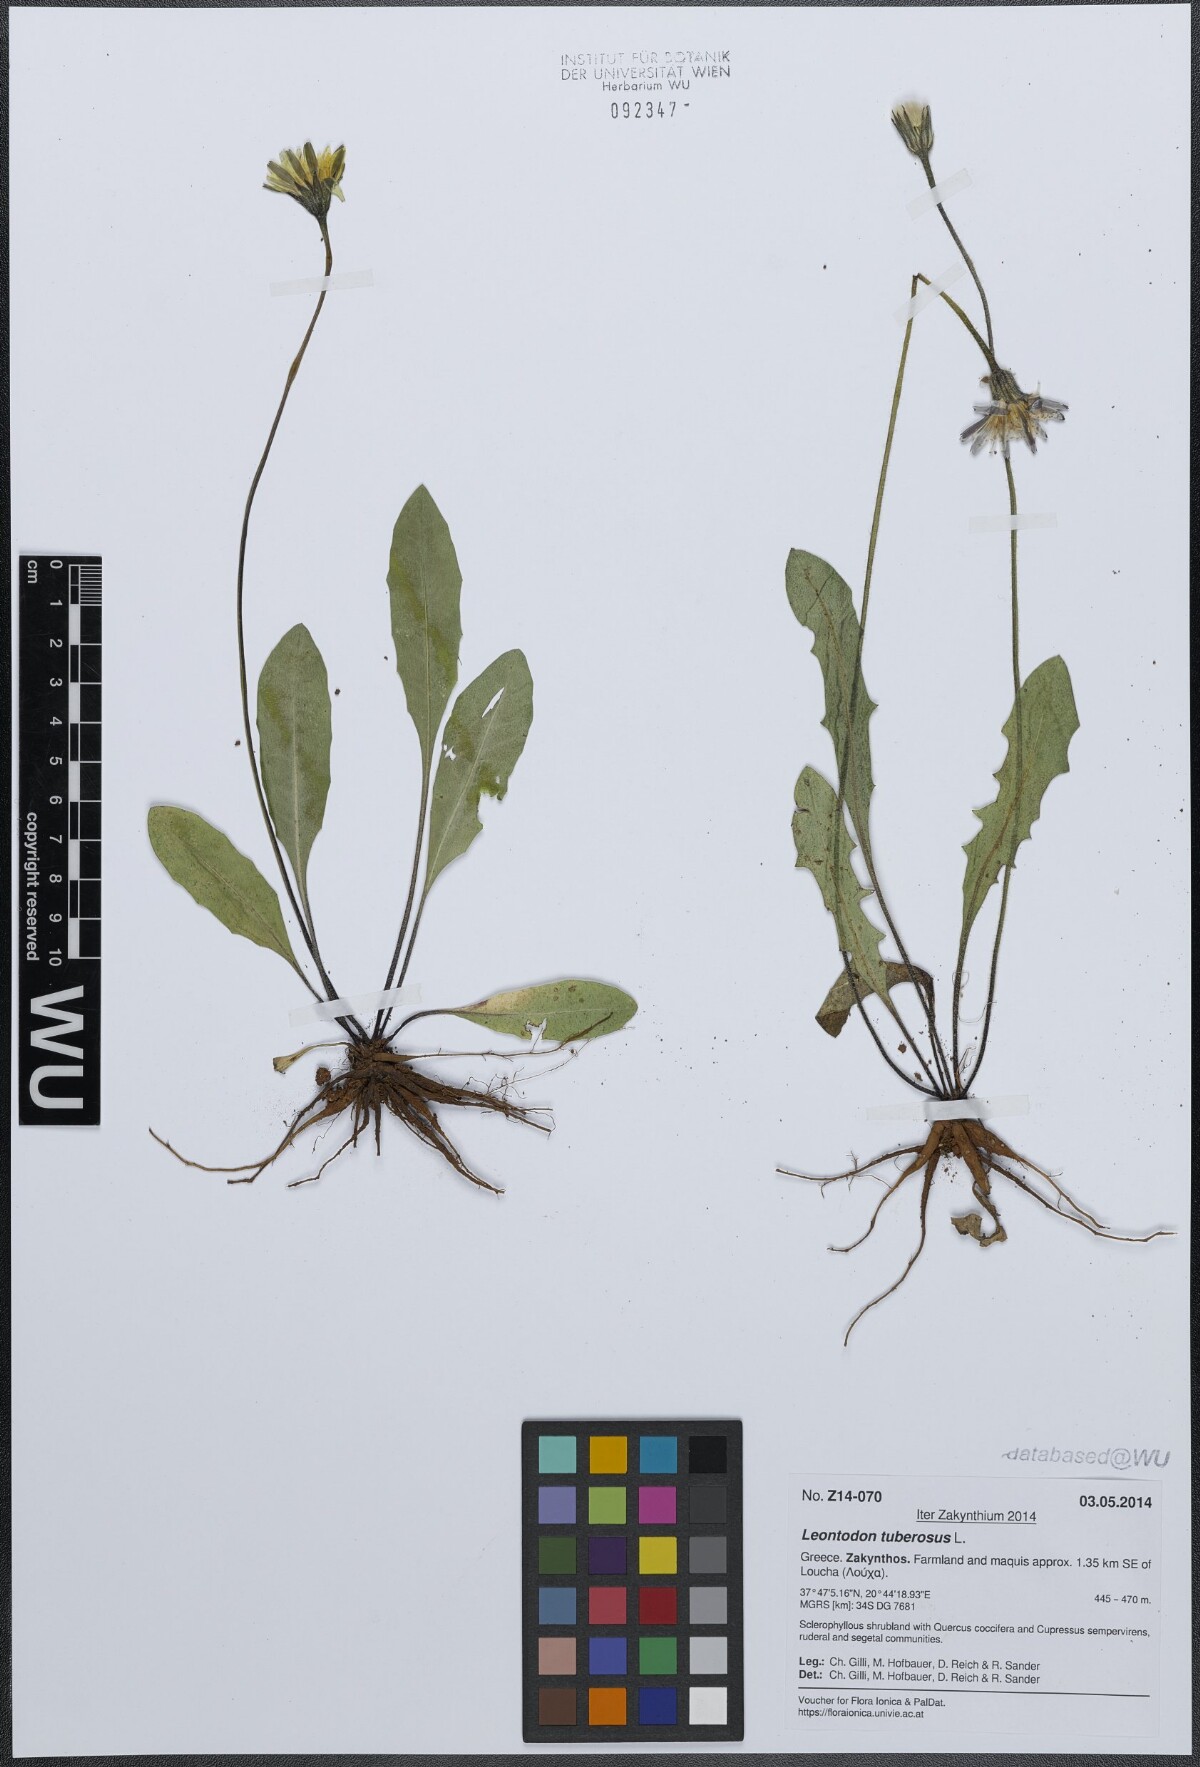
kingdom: Plantae
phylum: Tracheophyta
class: Magnoliopsida
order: Asterales
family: Asteraceae
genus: Thrincia
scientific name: Thrincia tuberosa
